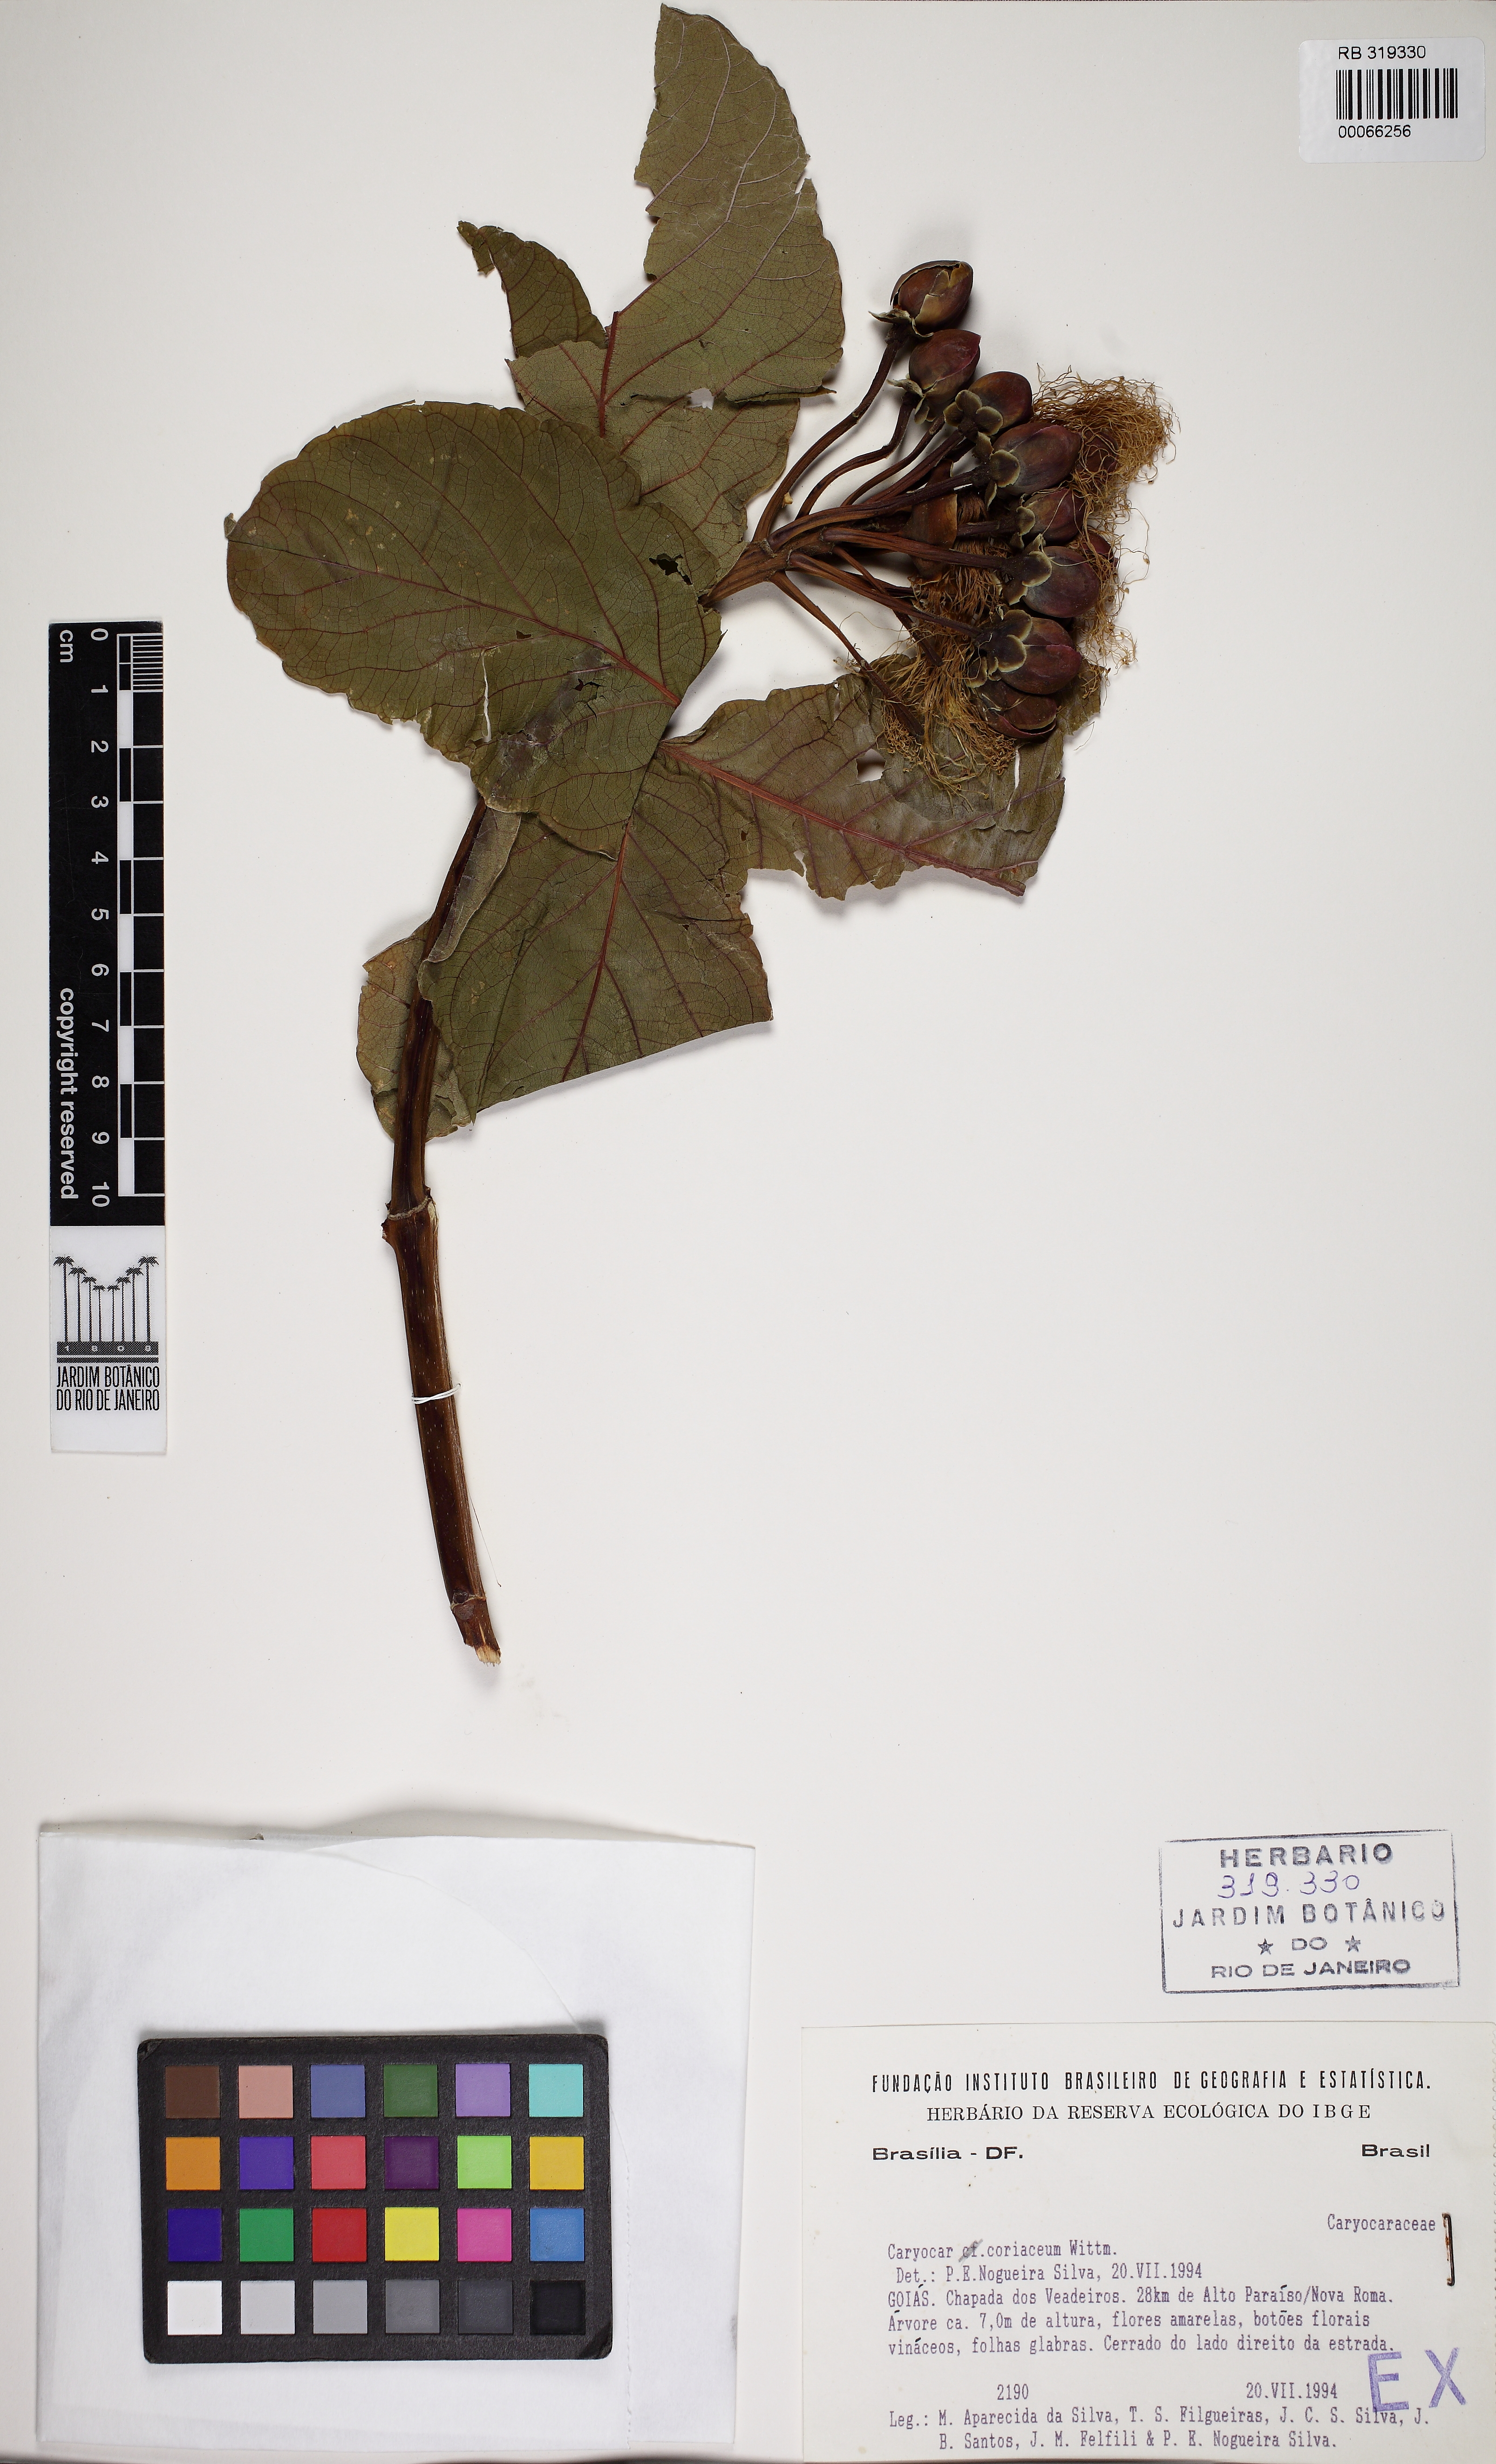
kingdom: Plantae
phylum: Tracheophyta
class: Magnoliopsida
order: Malpighiales
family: Caryocaraceae
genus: Caryocar
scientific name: Caryocar coriaceum
